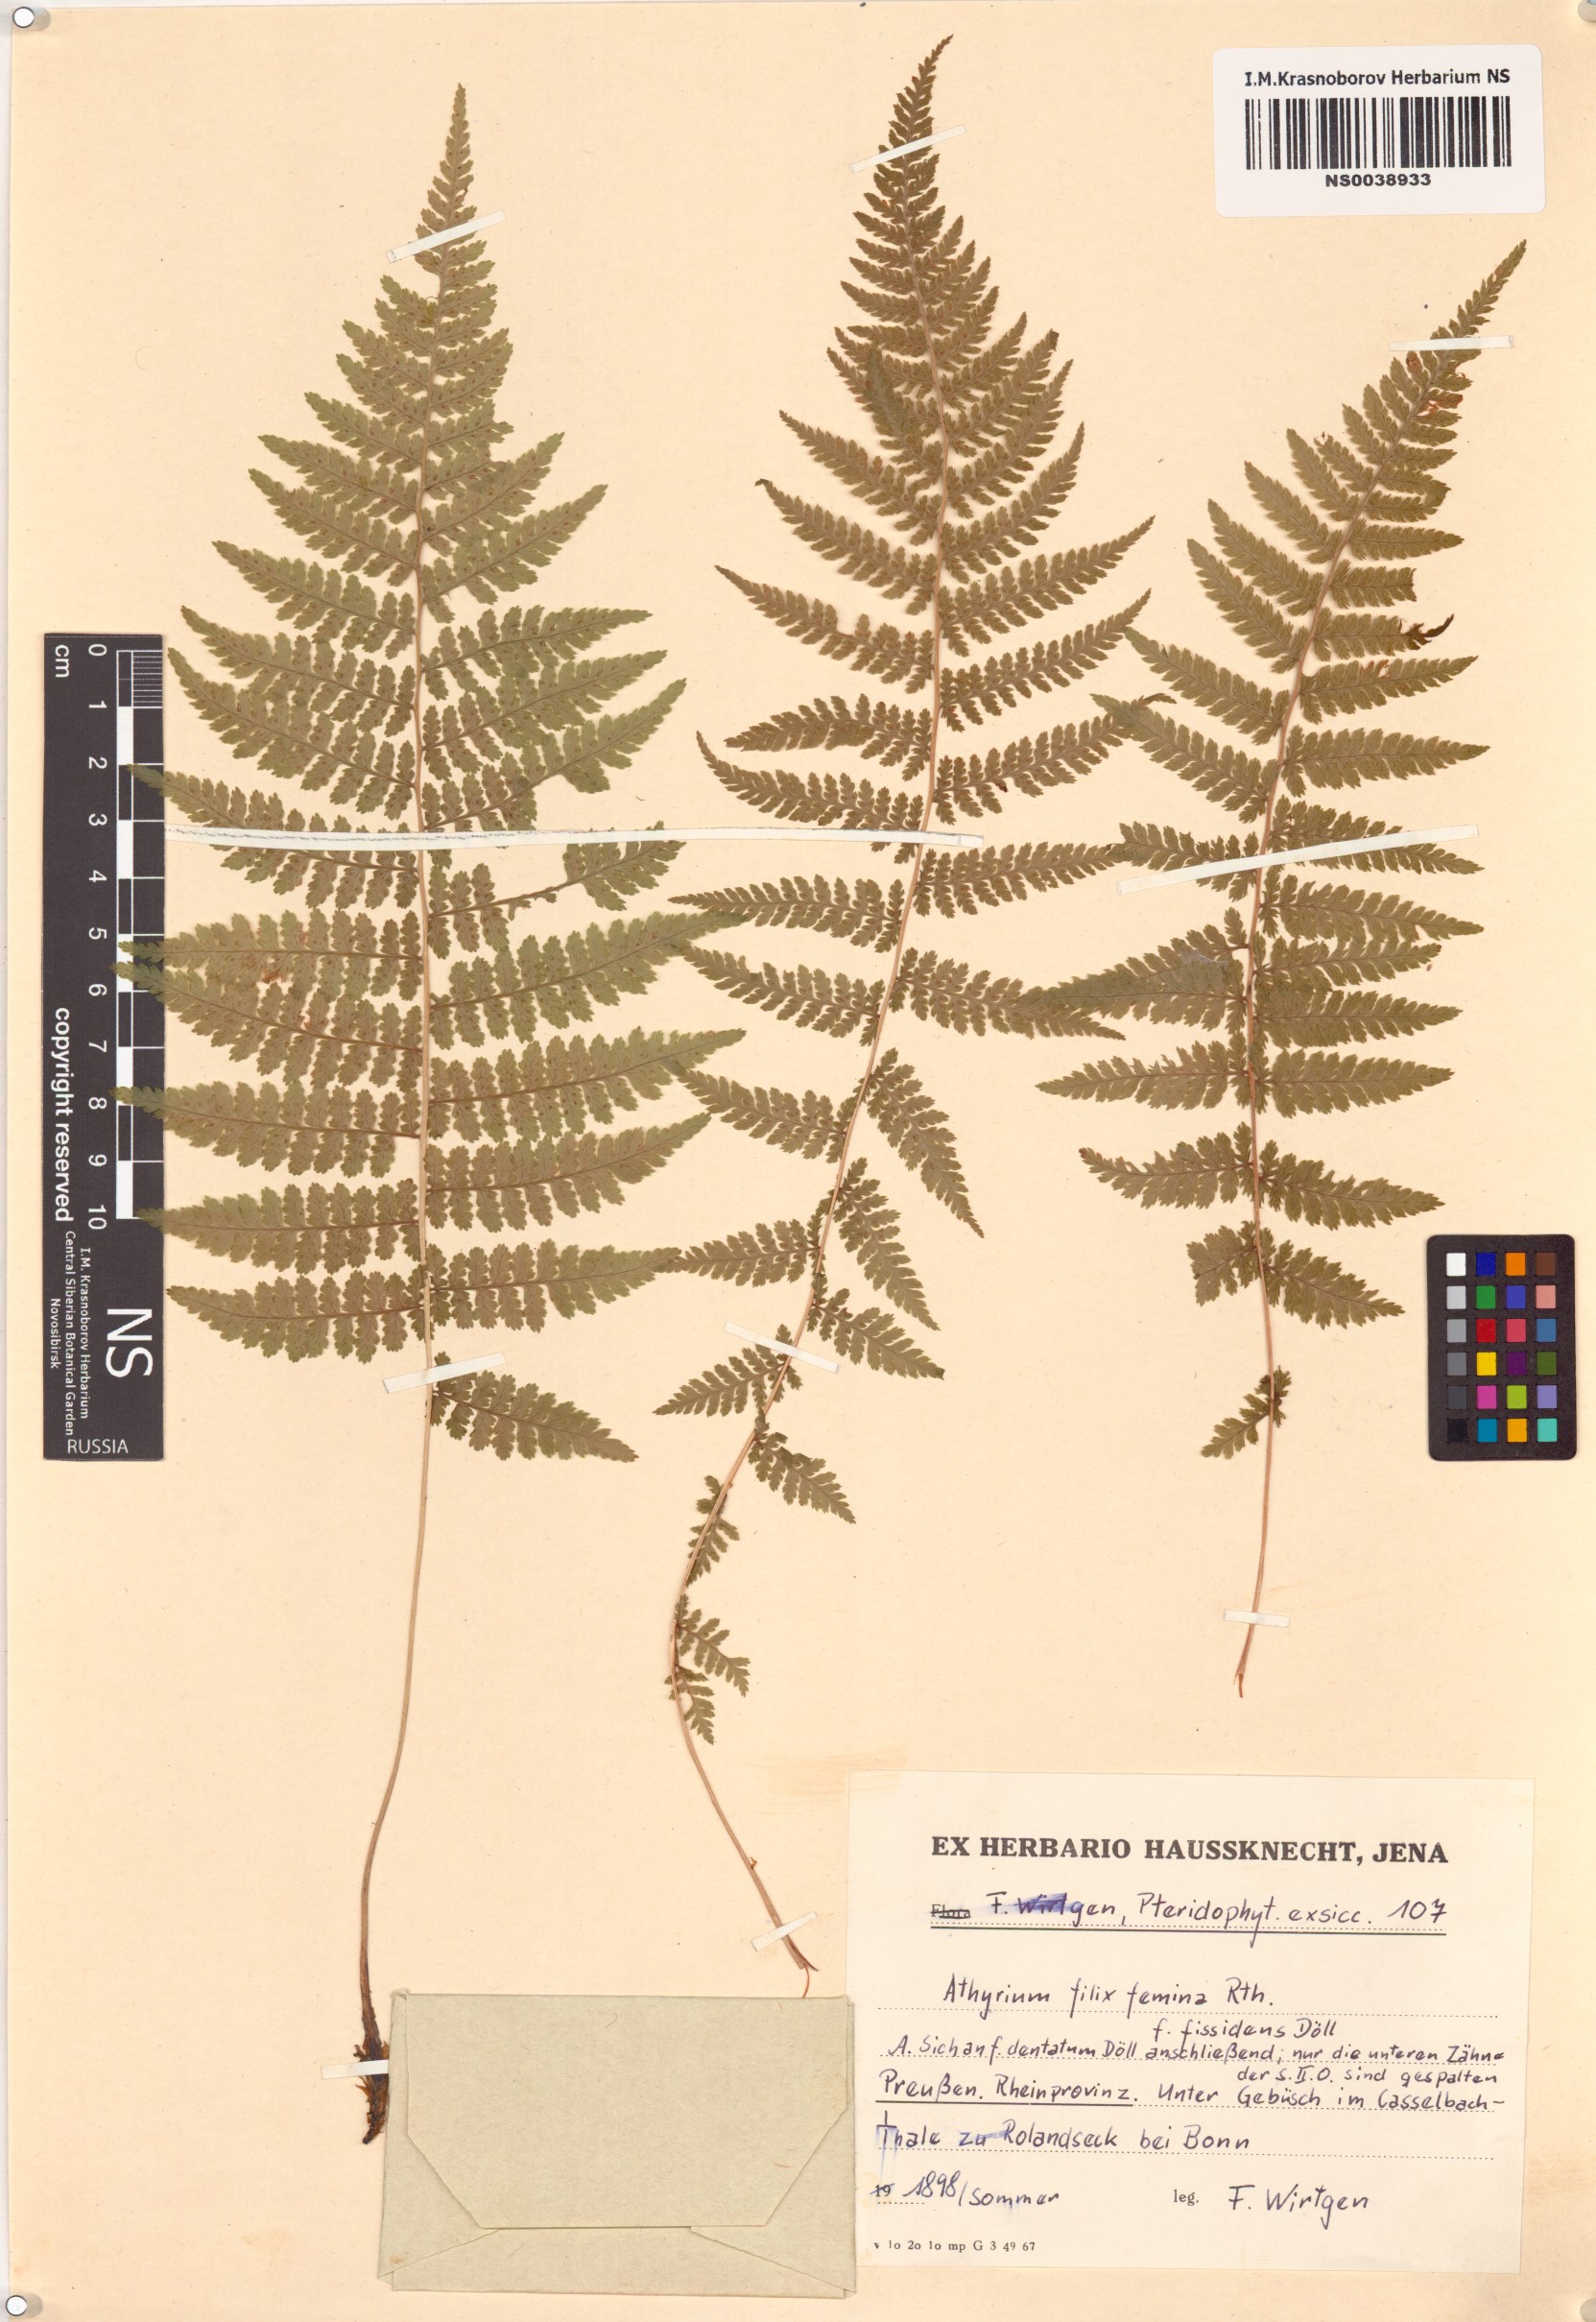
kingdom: Plantae
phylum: Tracheophyta
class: Polypodiopsida
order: Polypodiales
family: Athyriaceae
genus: Athyrium
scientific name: Athyrium filix-femina
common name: Lady fern
